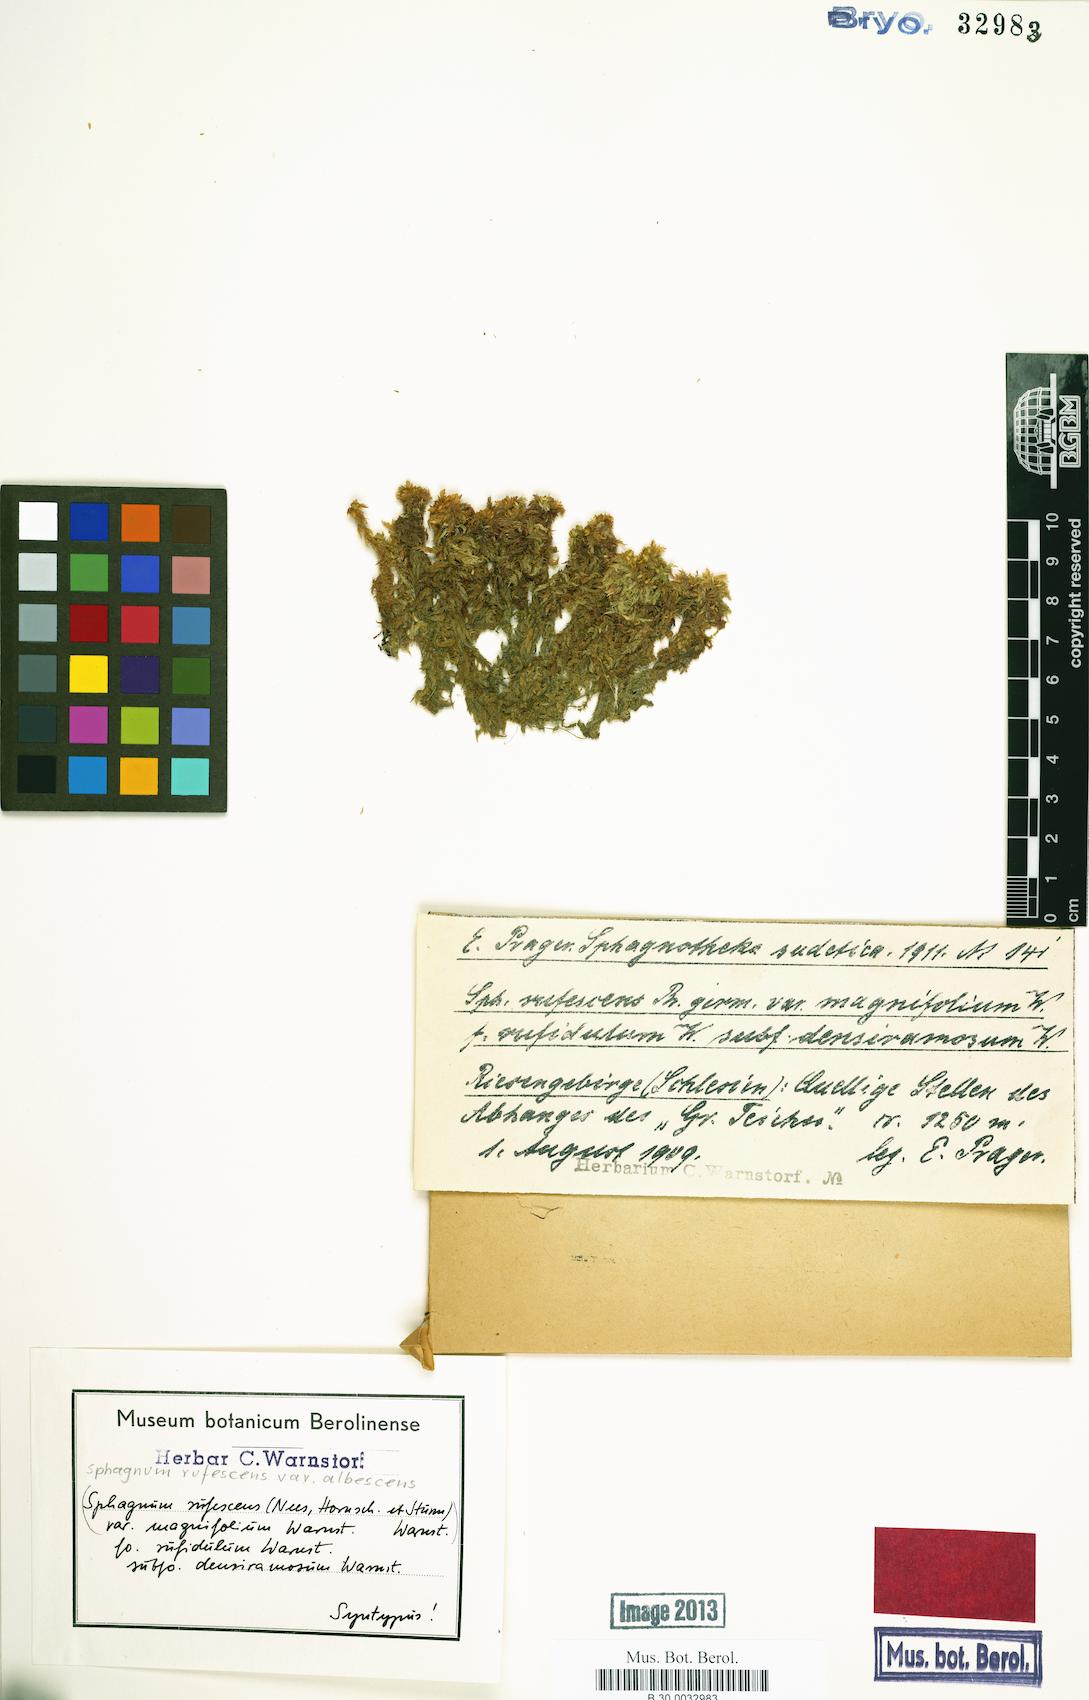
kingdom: Plantae
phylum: Bryophyta
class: Sphagnopsida
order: Sphagnales
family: Sphagnaceae
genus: Sphagnum
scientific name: Sphagnum
